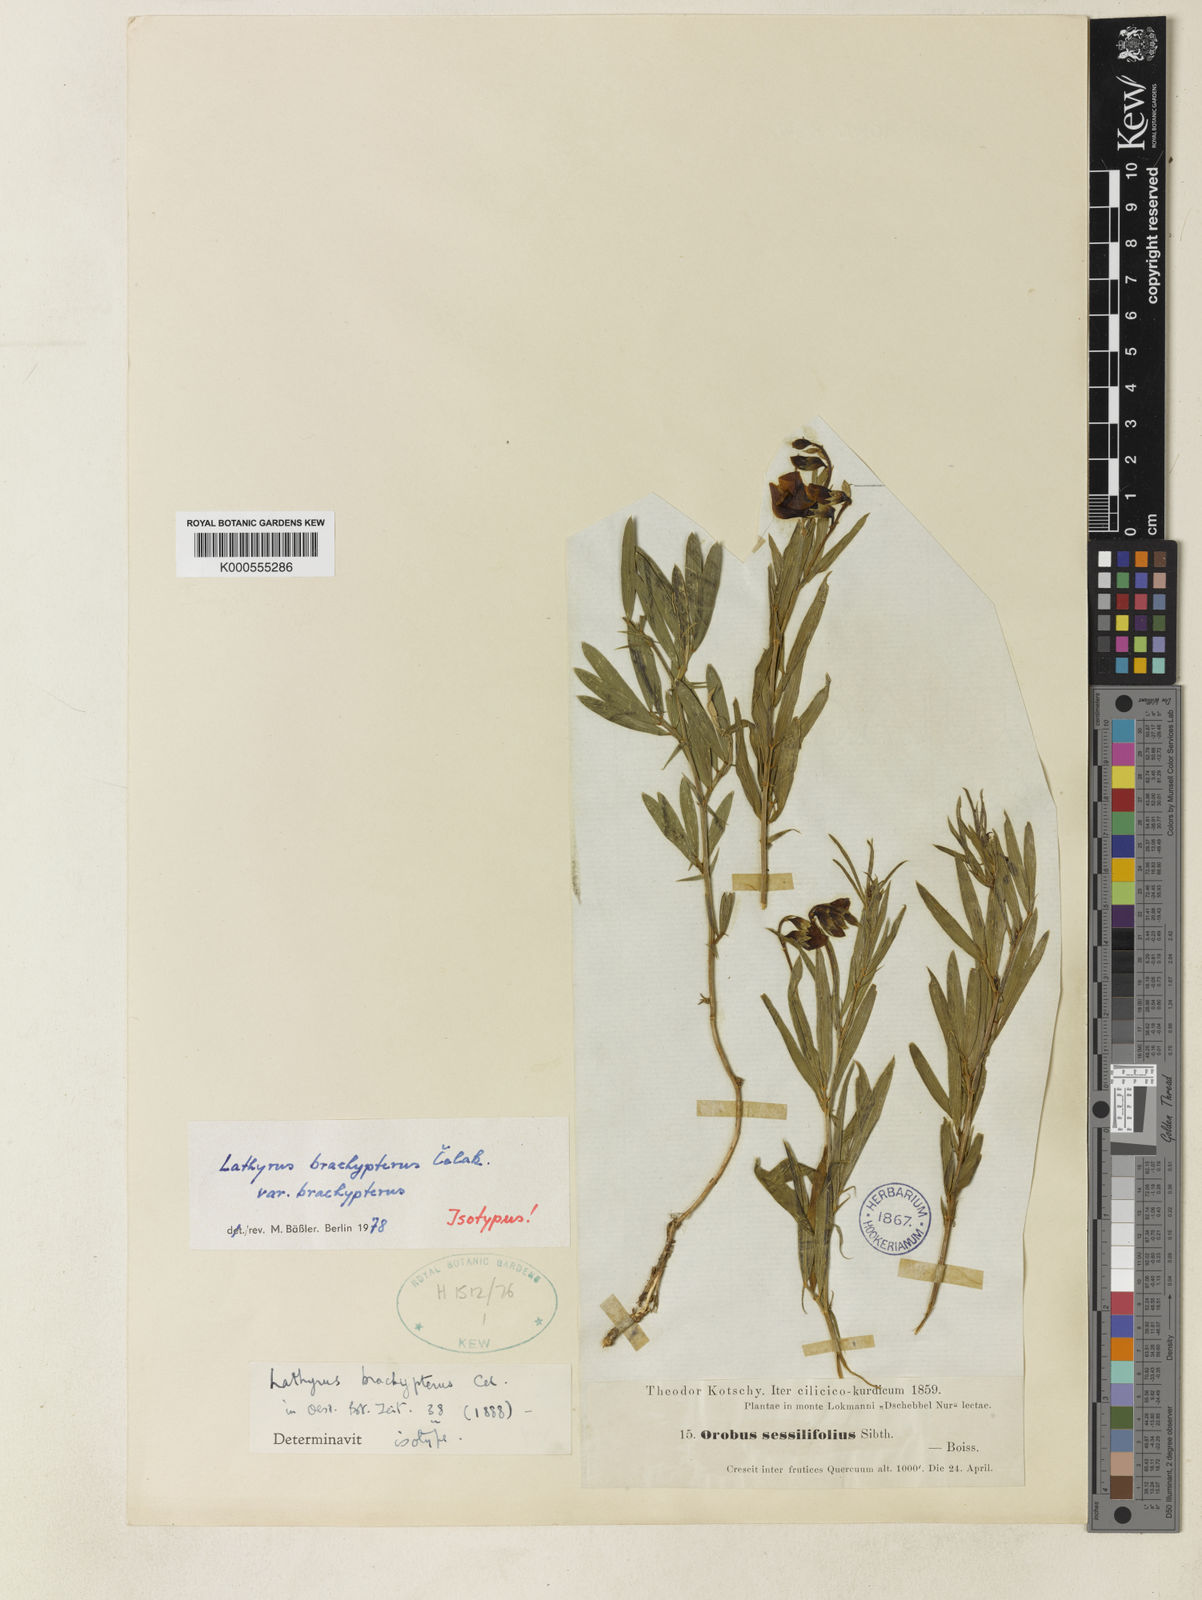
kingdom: Plantae
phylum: Tracheophyta
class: Magnoliopsida
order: Fabales
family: Fabaceae
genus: Lathyrus
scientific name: Lathyrus
